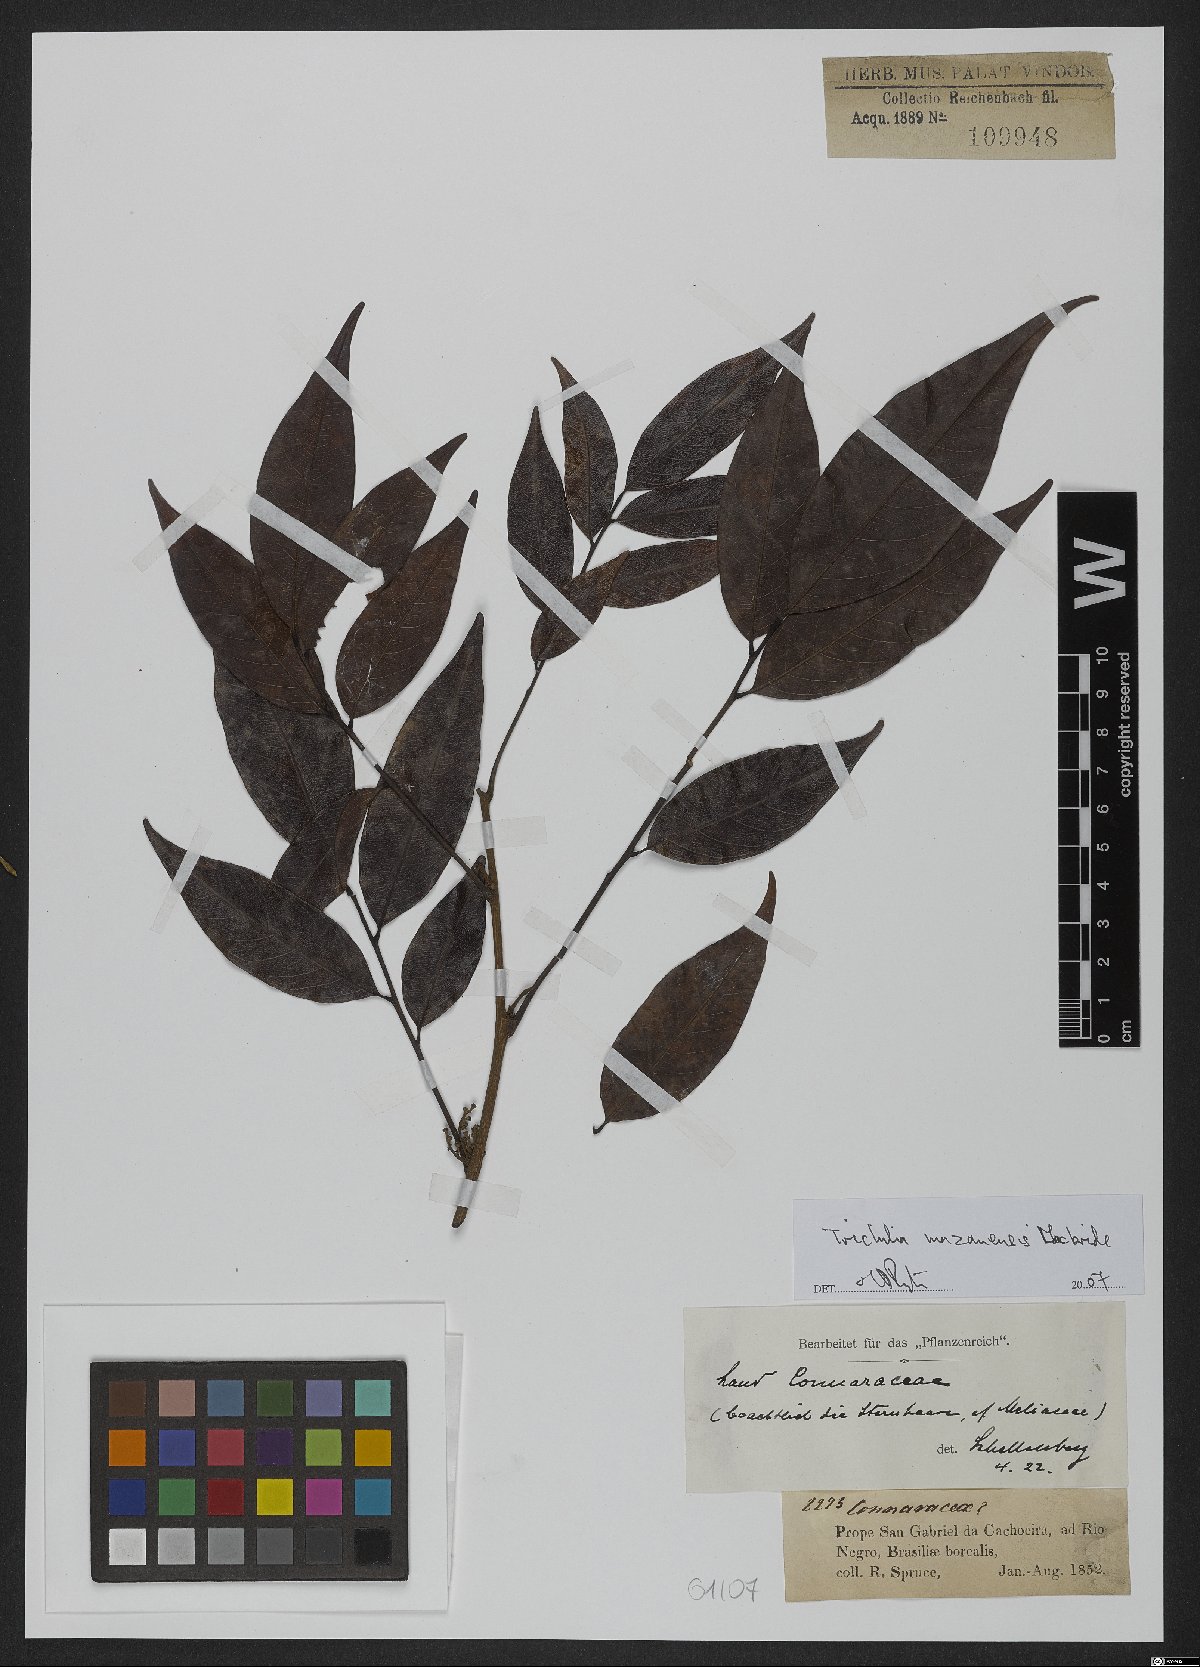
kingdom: Plantae
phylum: Tracheophyta
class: Magnoliopsida
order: Sapindales
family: Meliaceae
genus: Trichilia
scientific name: Trichilia mazanensis
